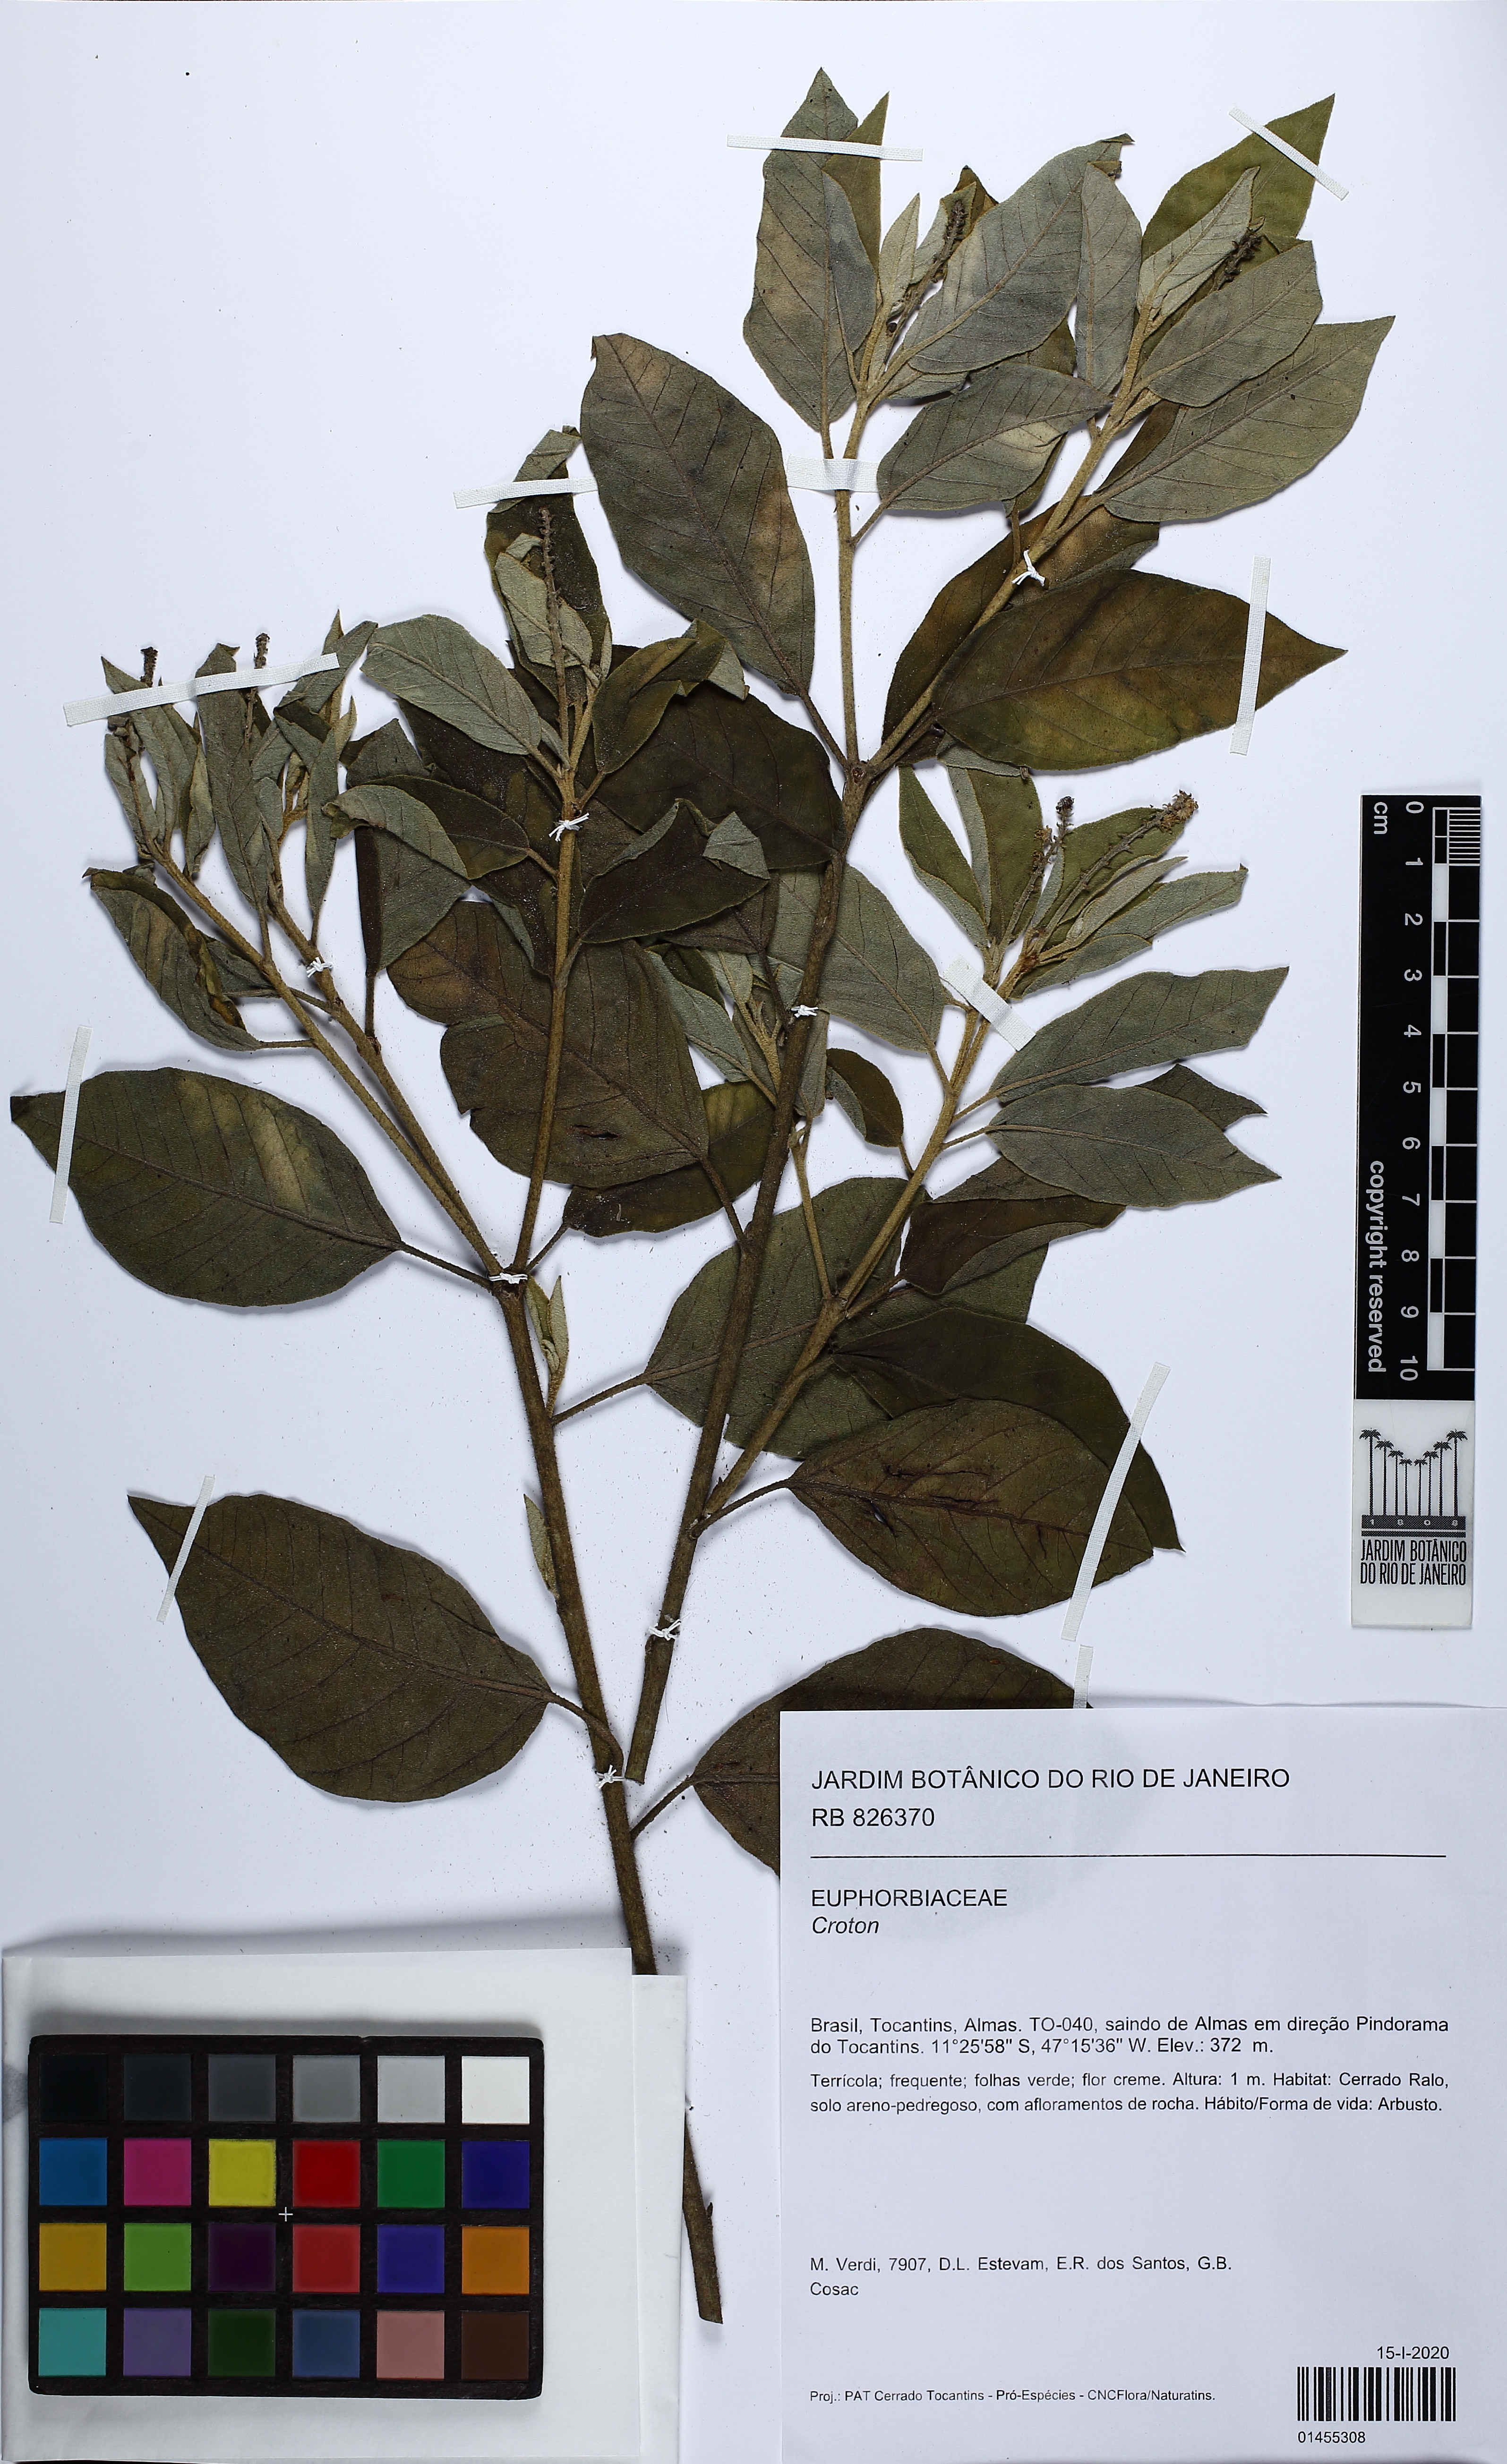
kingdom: Plantae
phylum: Tracheophyta
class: Magnoliopsida
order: Malpighiales
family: Euphorbiaceae
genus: Croton
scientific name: Croton
